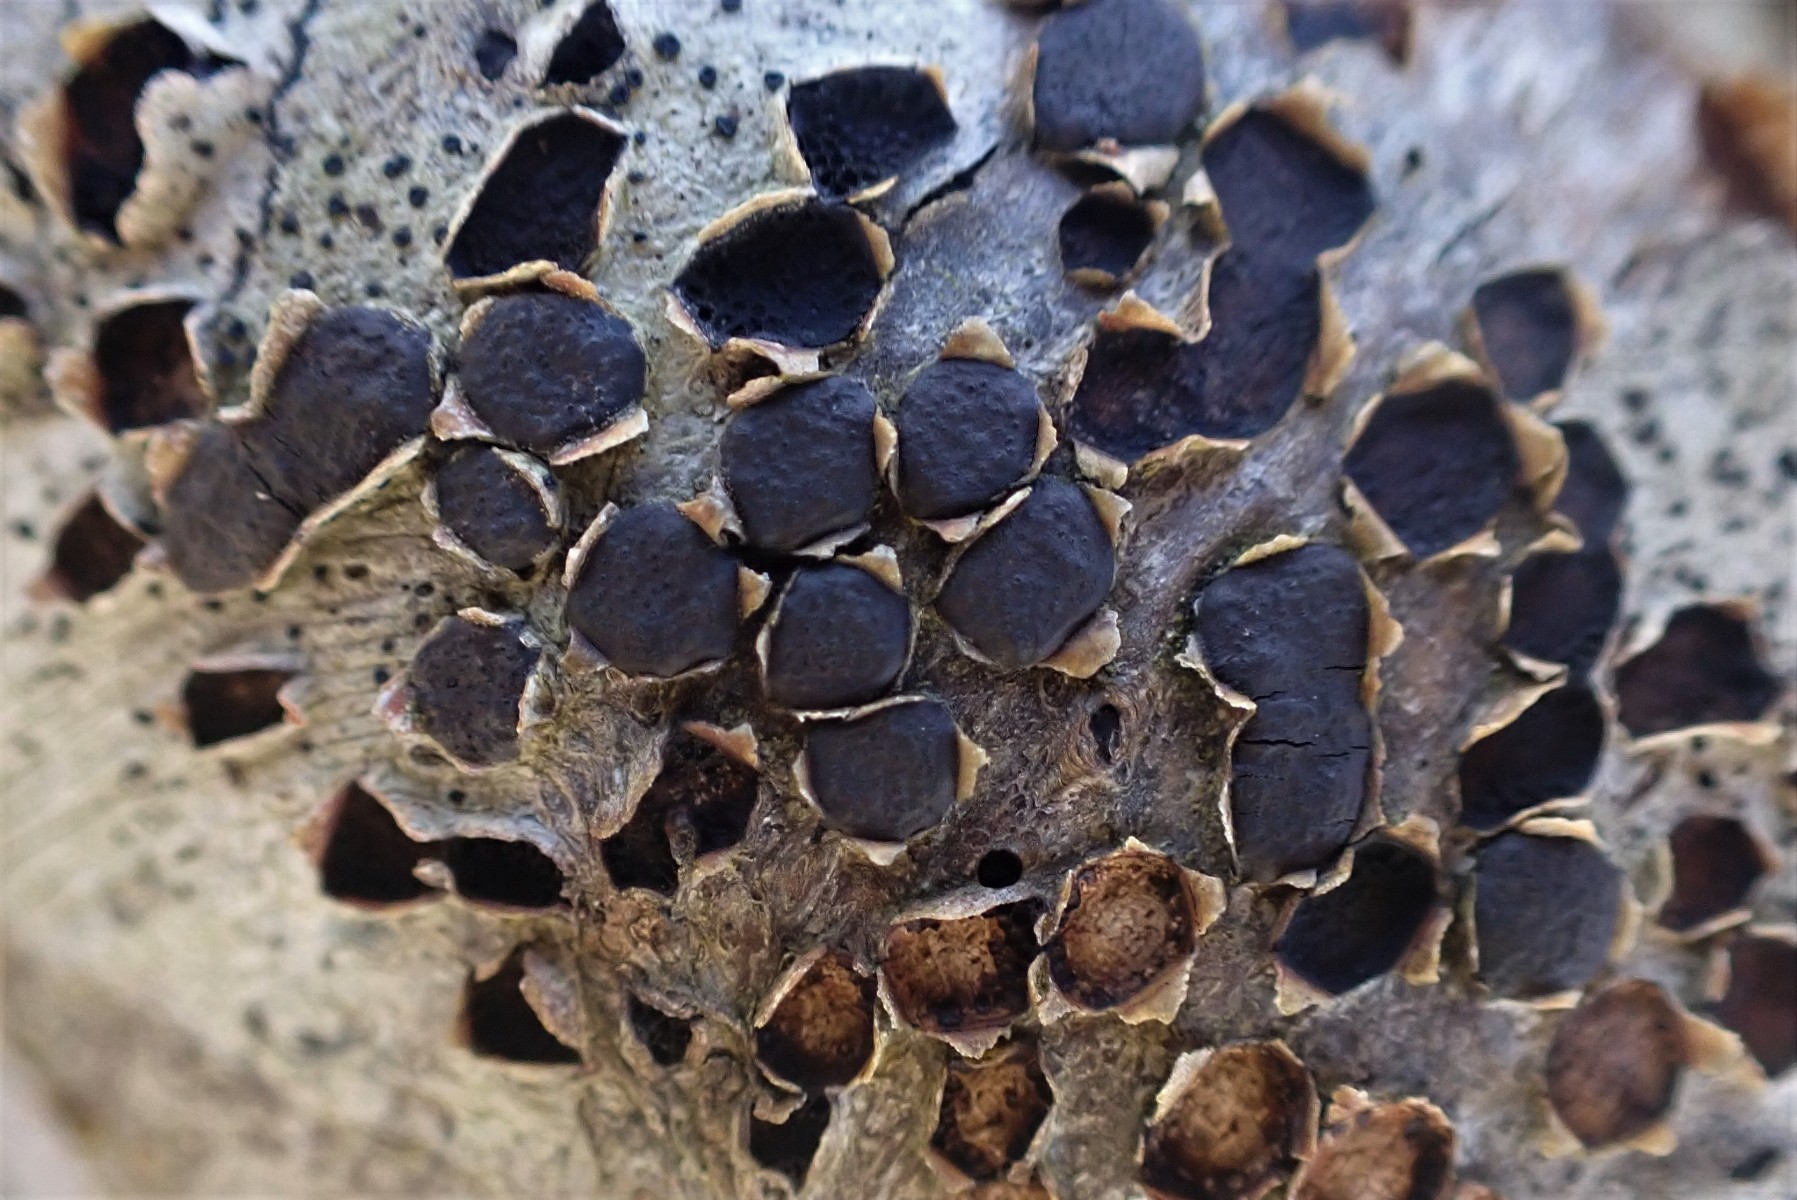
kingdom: Fungi
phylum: Ascomycota
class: Sordariomycetes
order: Xylariales
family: Diatrypaceae
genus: Diatrype
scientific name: Diatrype disciformis
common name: kant-kulskorpe
